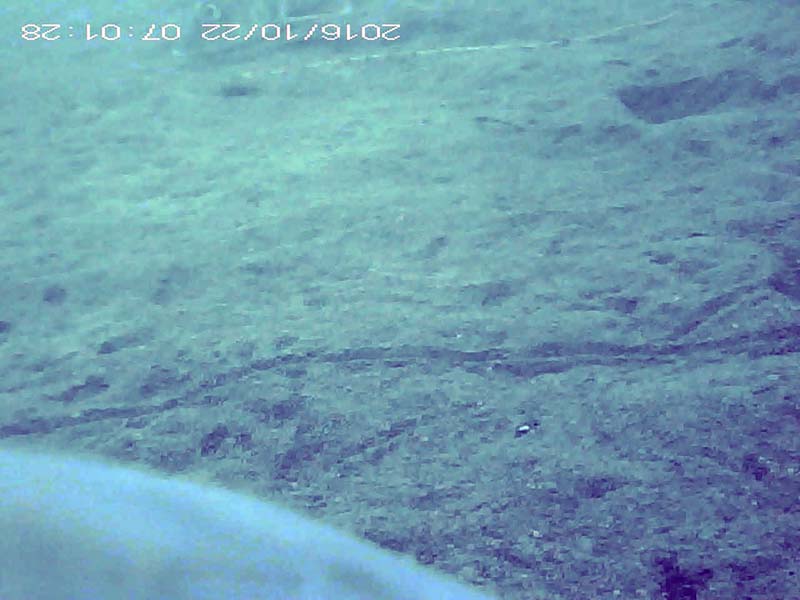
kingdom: Animalia
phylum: Chordata
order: Perciformes
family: Gobiidae
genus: Rhinogobius
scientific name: Rhinogobius
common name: ヨシノボリ
